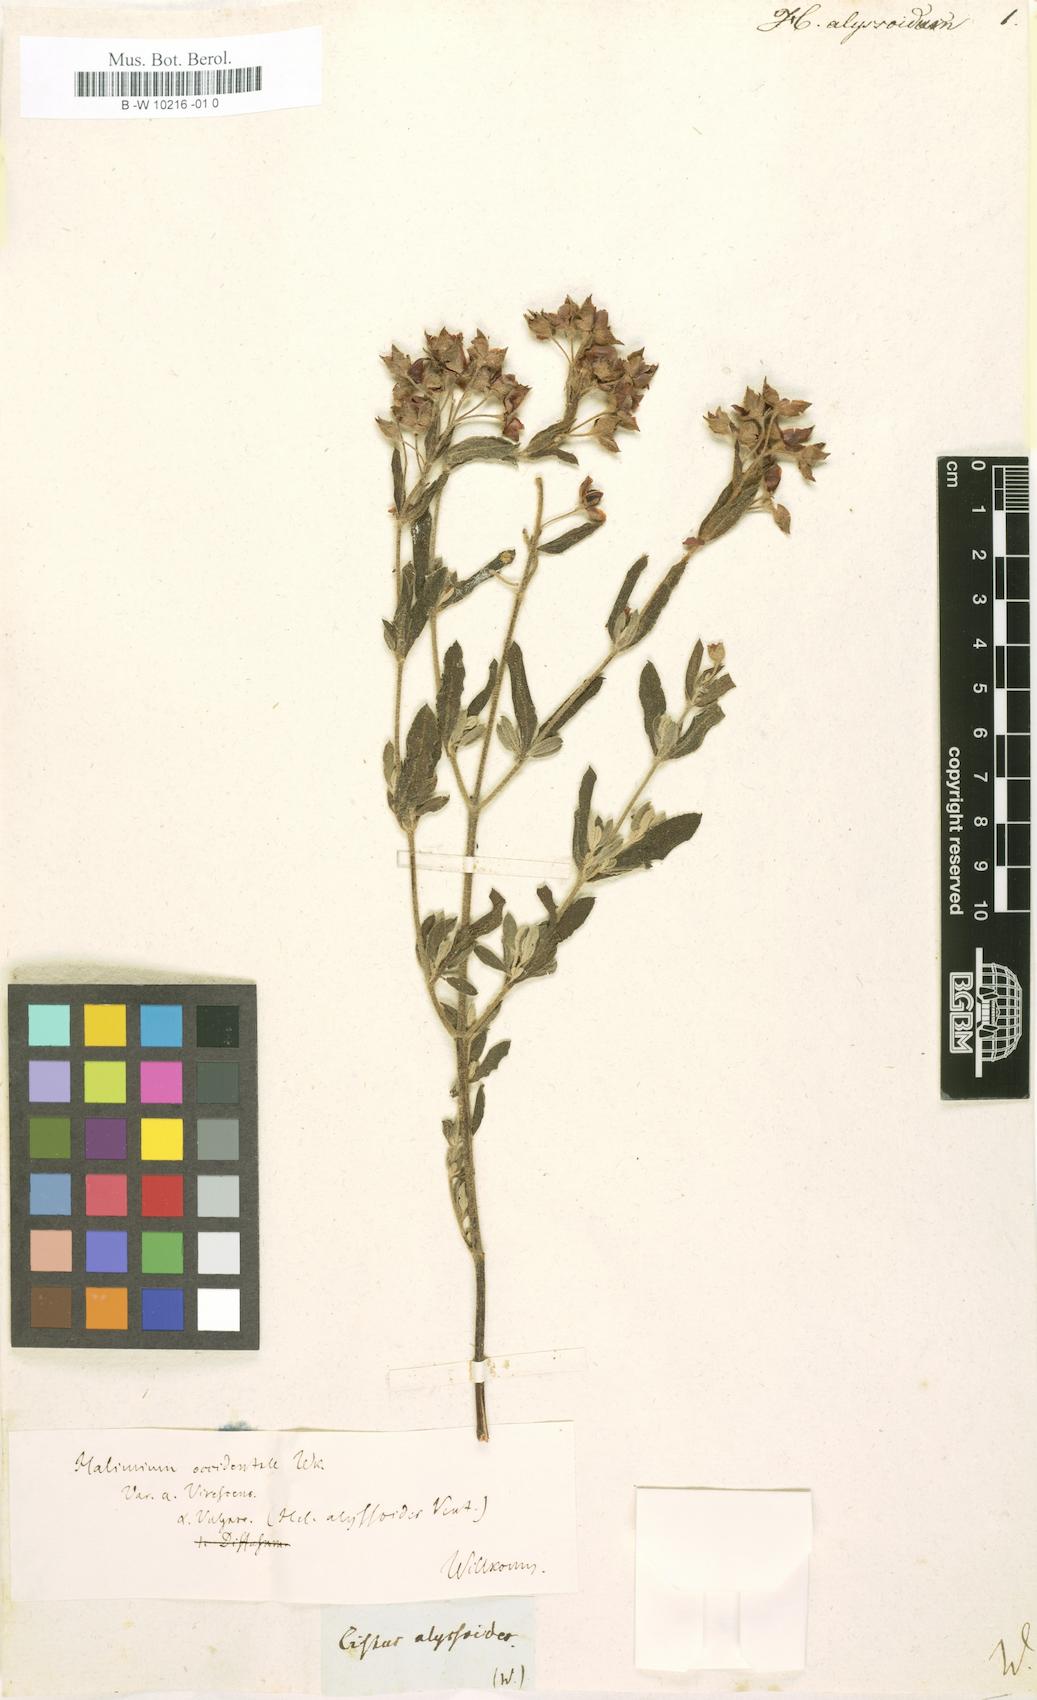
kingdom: Plantae
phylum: Tracheophyta
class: Magnoliopsida
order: Malvales
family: Cistaceae
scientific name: Cistaceae
